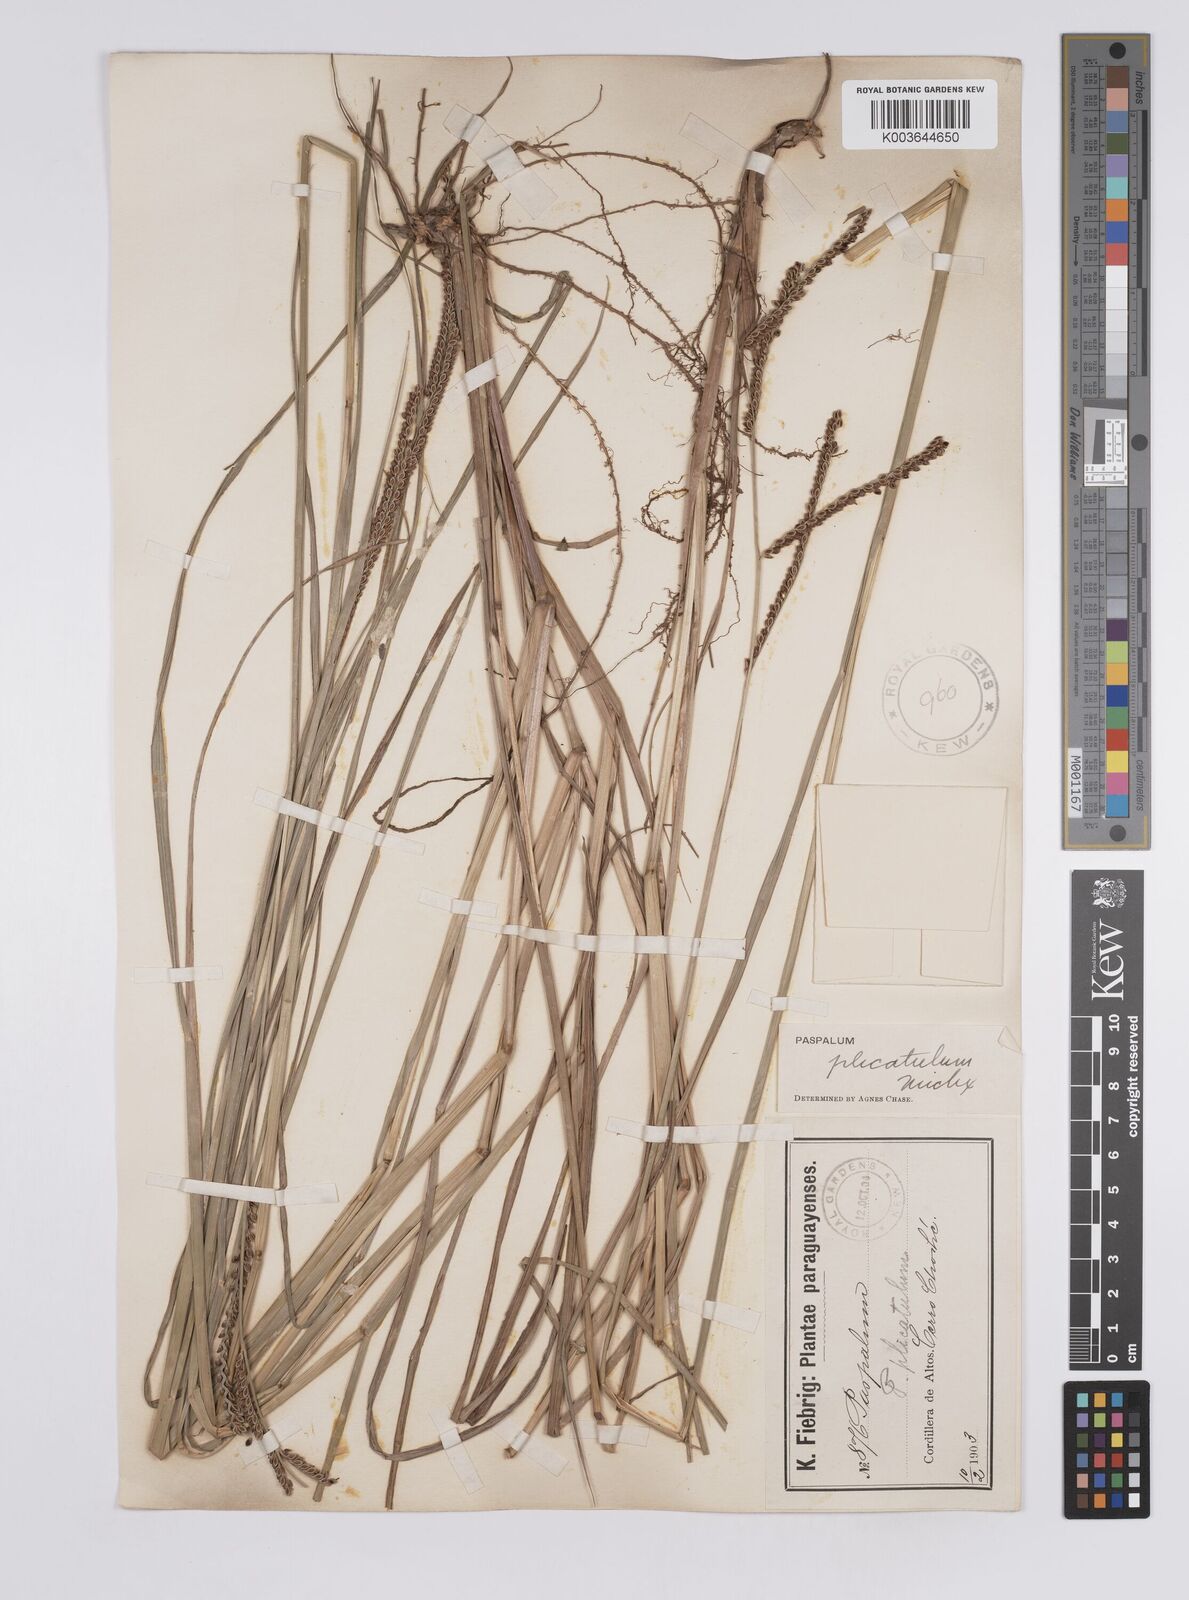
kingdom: Plantae
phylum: Tracheophyta
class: Liliopsida
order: Poales
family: Poaceae
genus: Paspalum
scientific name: Paspalum plicatulum
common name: Top paspalum
